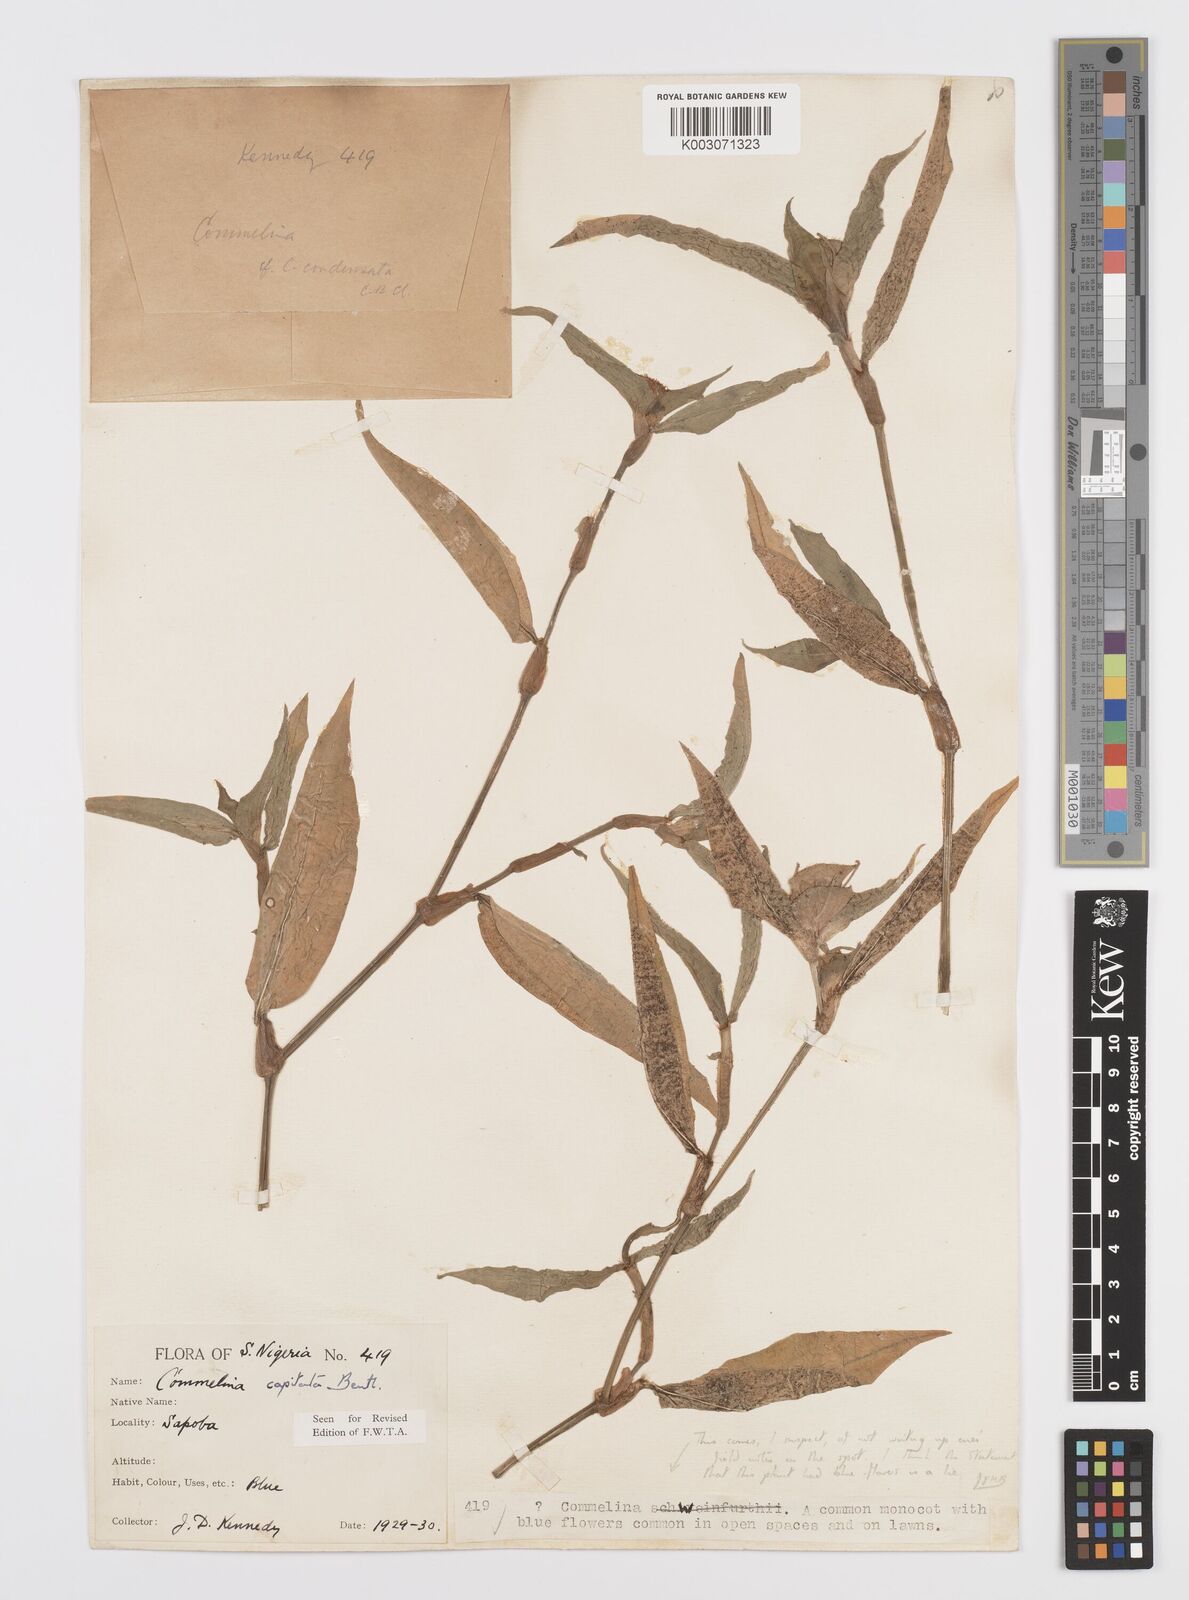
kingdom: Plantae
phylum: Tracheophyta
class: Liliopsida
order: Commelinales
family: Commelinaceae
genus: Commelina
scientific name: Commelina capitata
